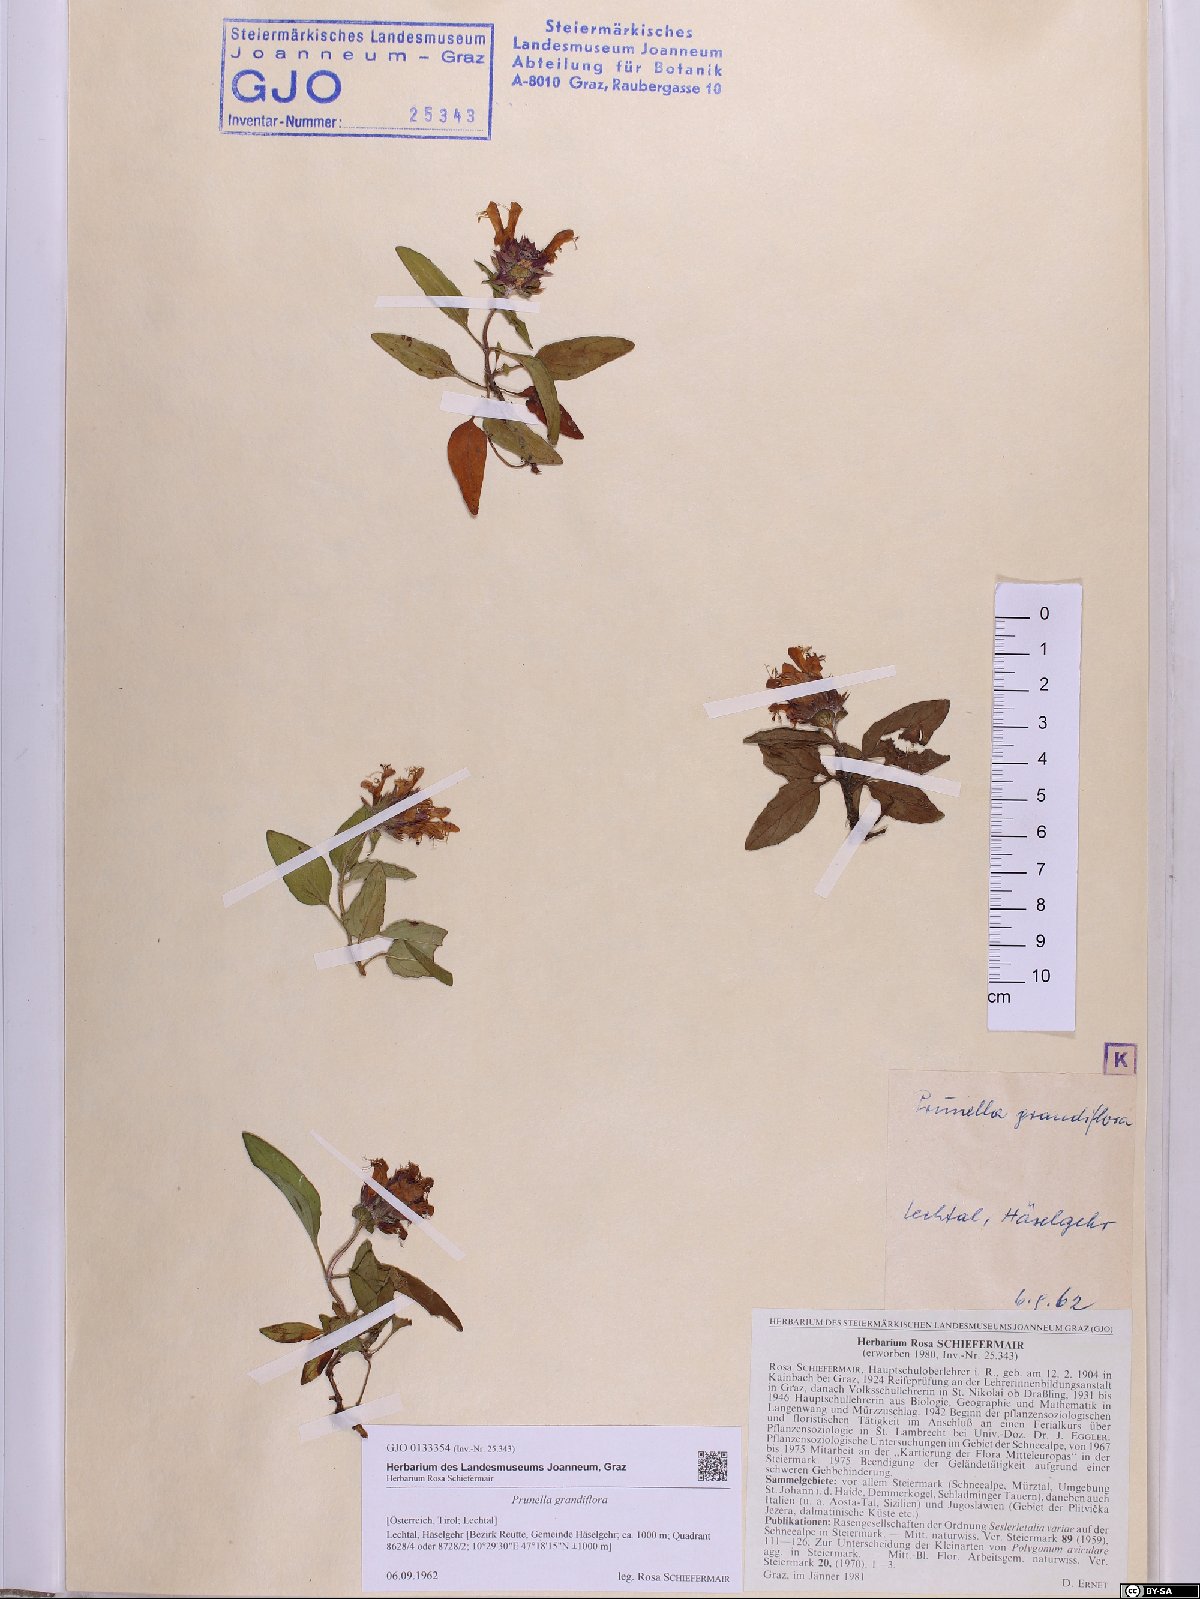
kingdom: Plantae
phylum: Tracheophyta
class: Magnoliopsida
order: Lamiales
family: Lamiaceae
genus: Prunella
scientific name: Prunella grandiflora
